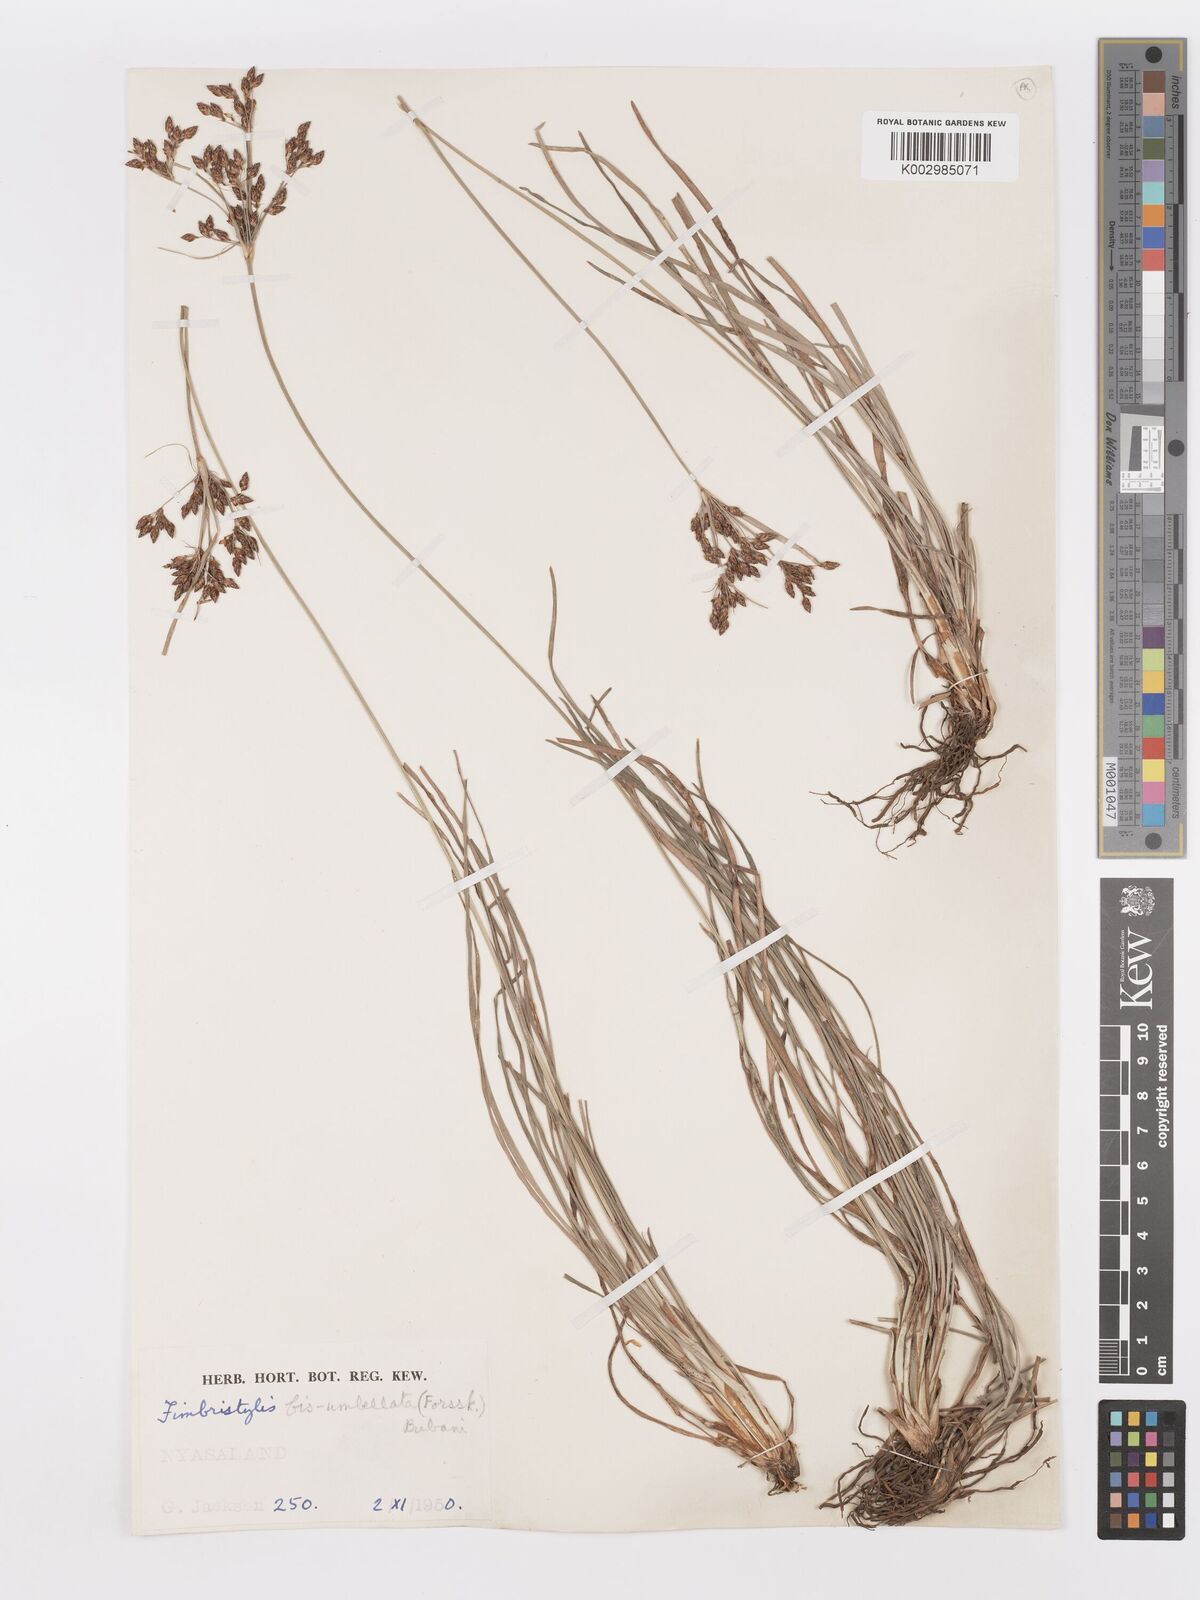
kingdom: Plantae
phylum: Tracheophyta
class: Liliopsida
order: Poales
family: Cyperaceae
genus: Fimbristylis
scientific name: Fimbristylis dichotoma
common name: Forked fimbry
